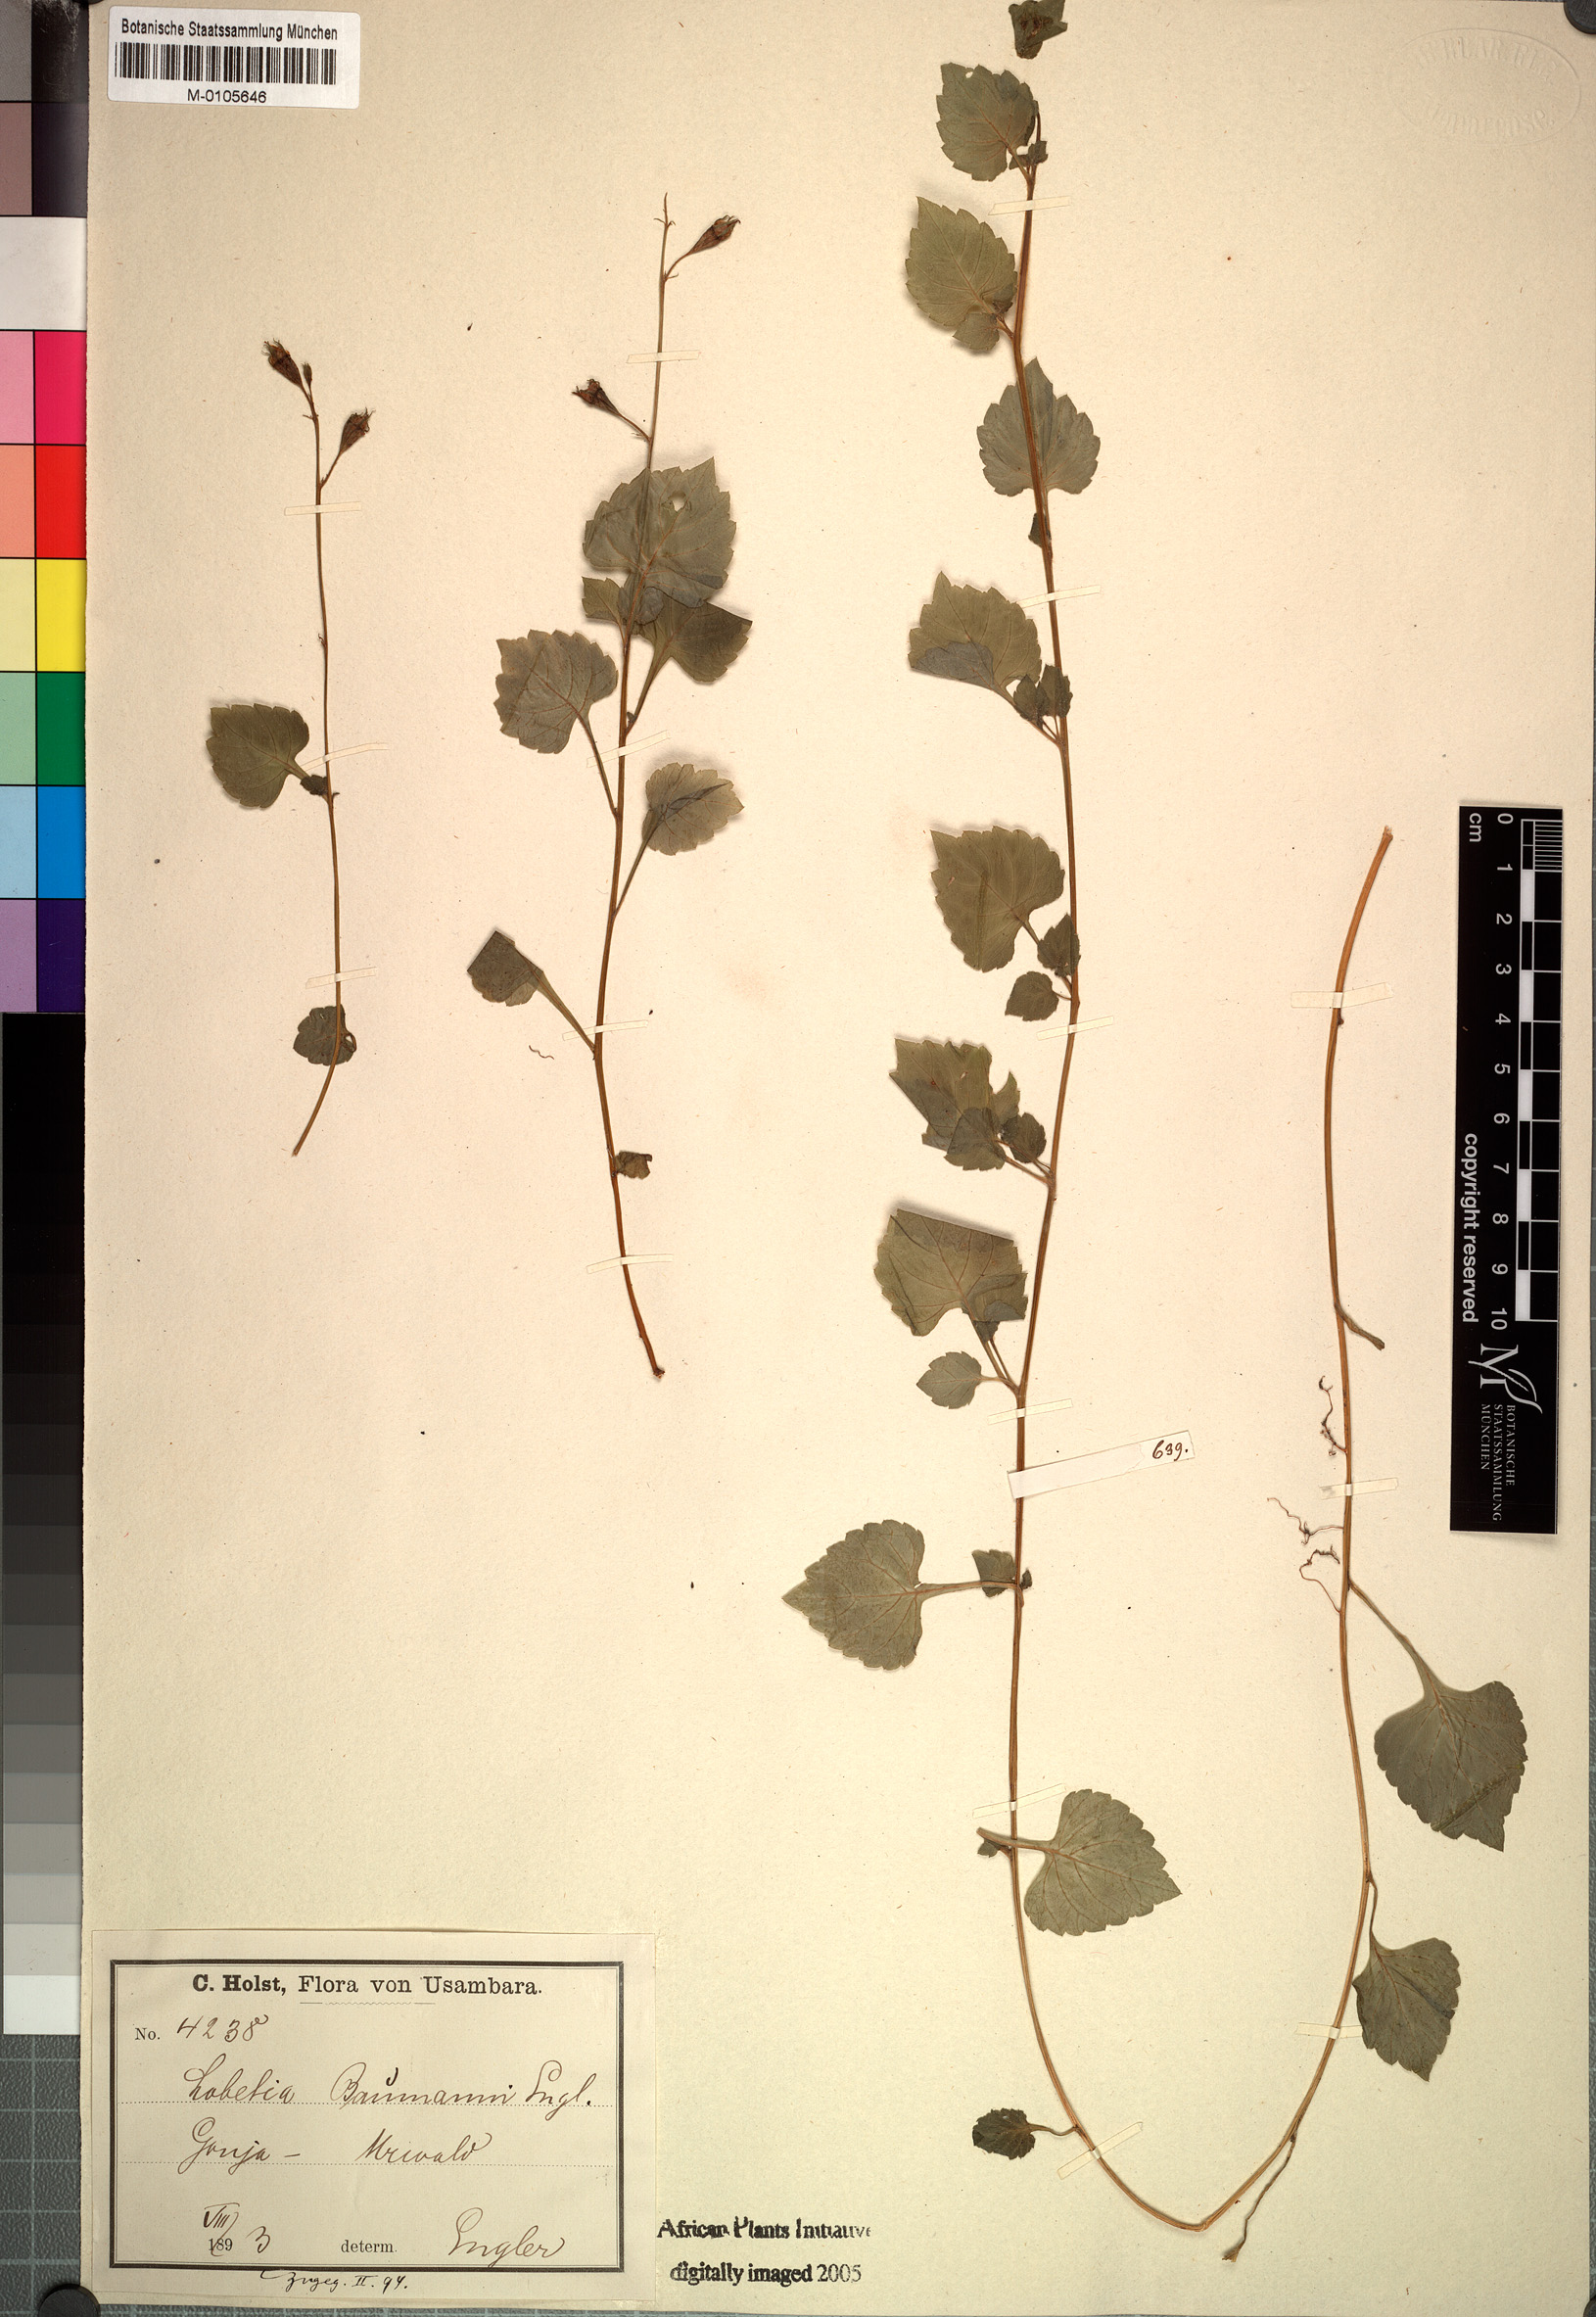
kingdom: Plantae
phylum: Tracheophyta
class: Magnoliopsida
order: Asterales
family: Campanulaceae
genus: Lobelia
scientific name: Lobelia baumannii
